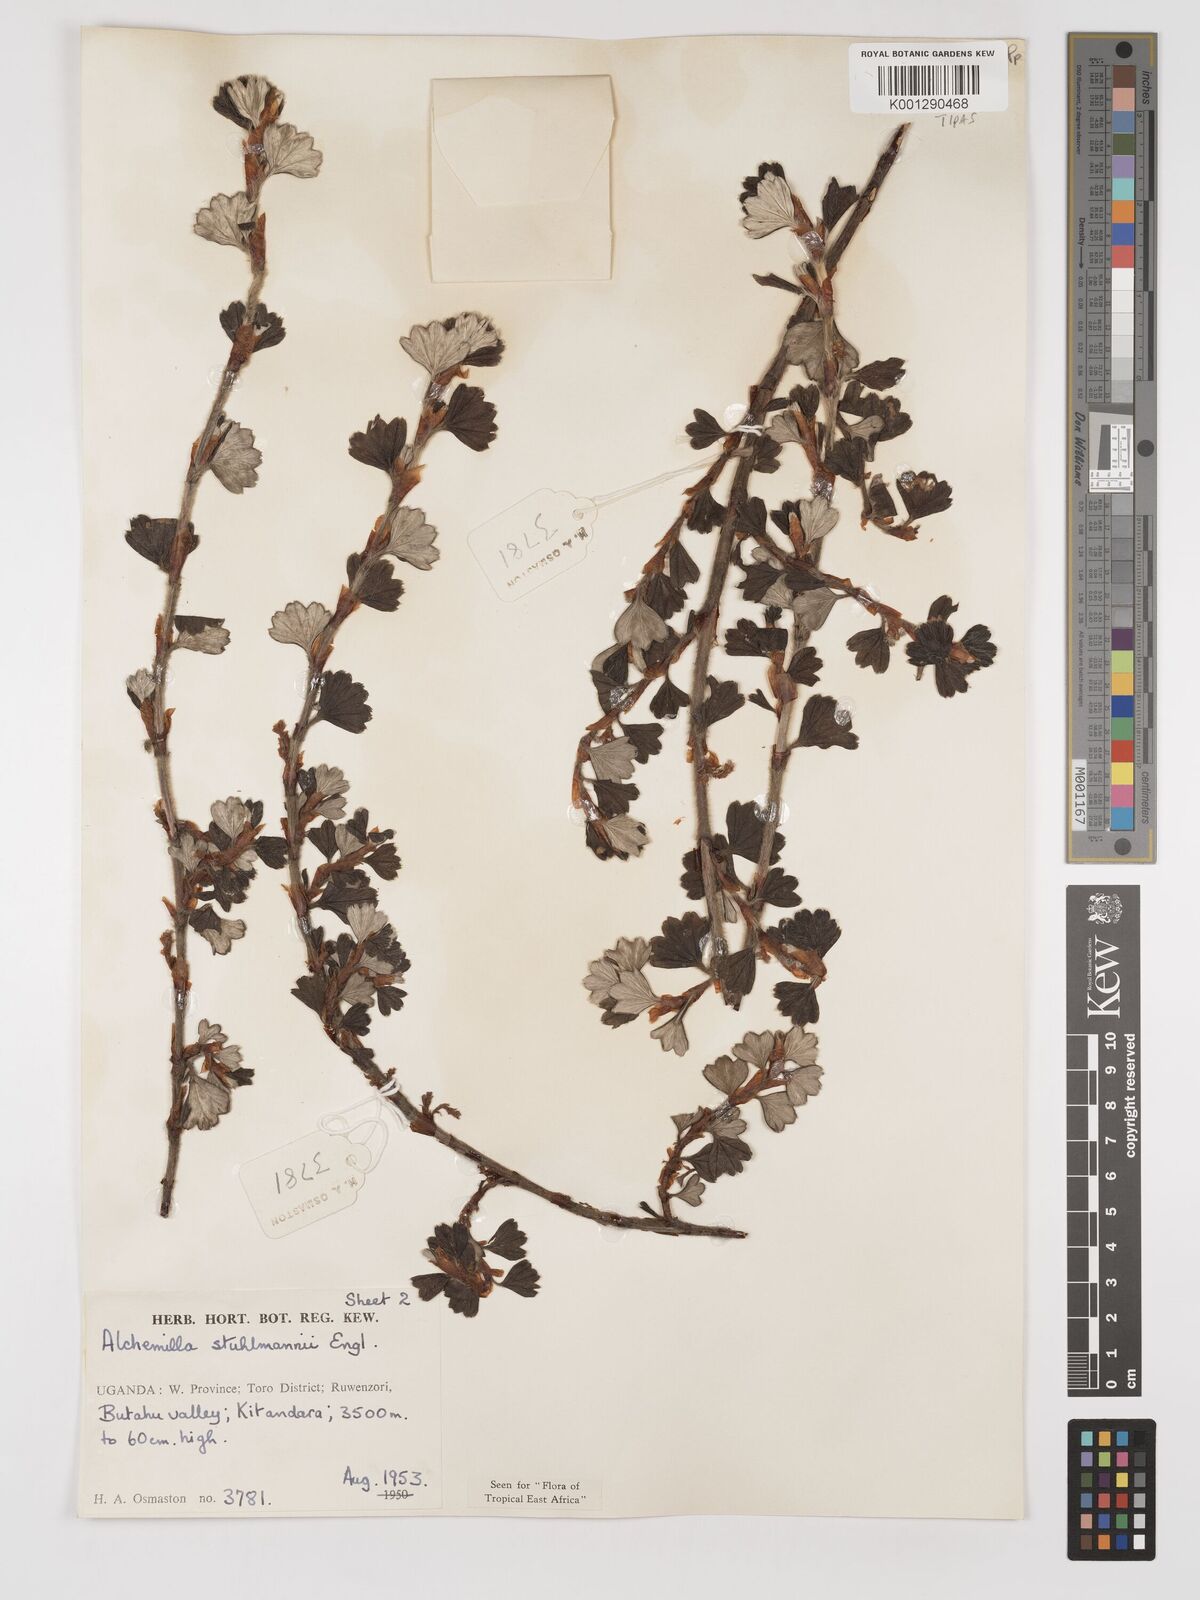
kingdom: Plantae
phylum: Tracheophyta
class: Magnoliopsida
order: Rosales
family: Rosaceae
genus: Alchemilla
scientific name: Alchemilla stuhlmannii
